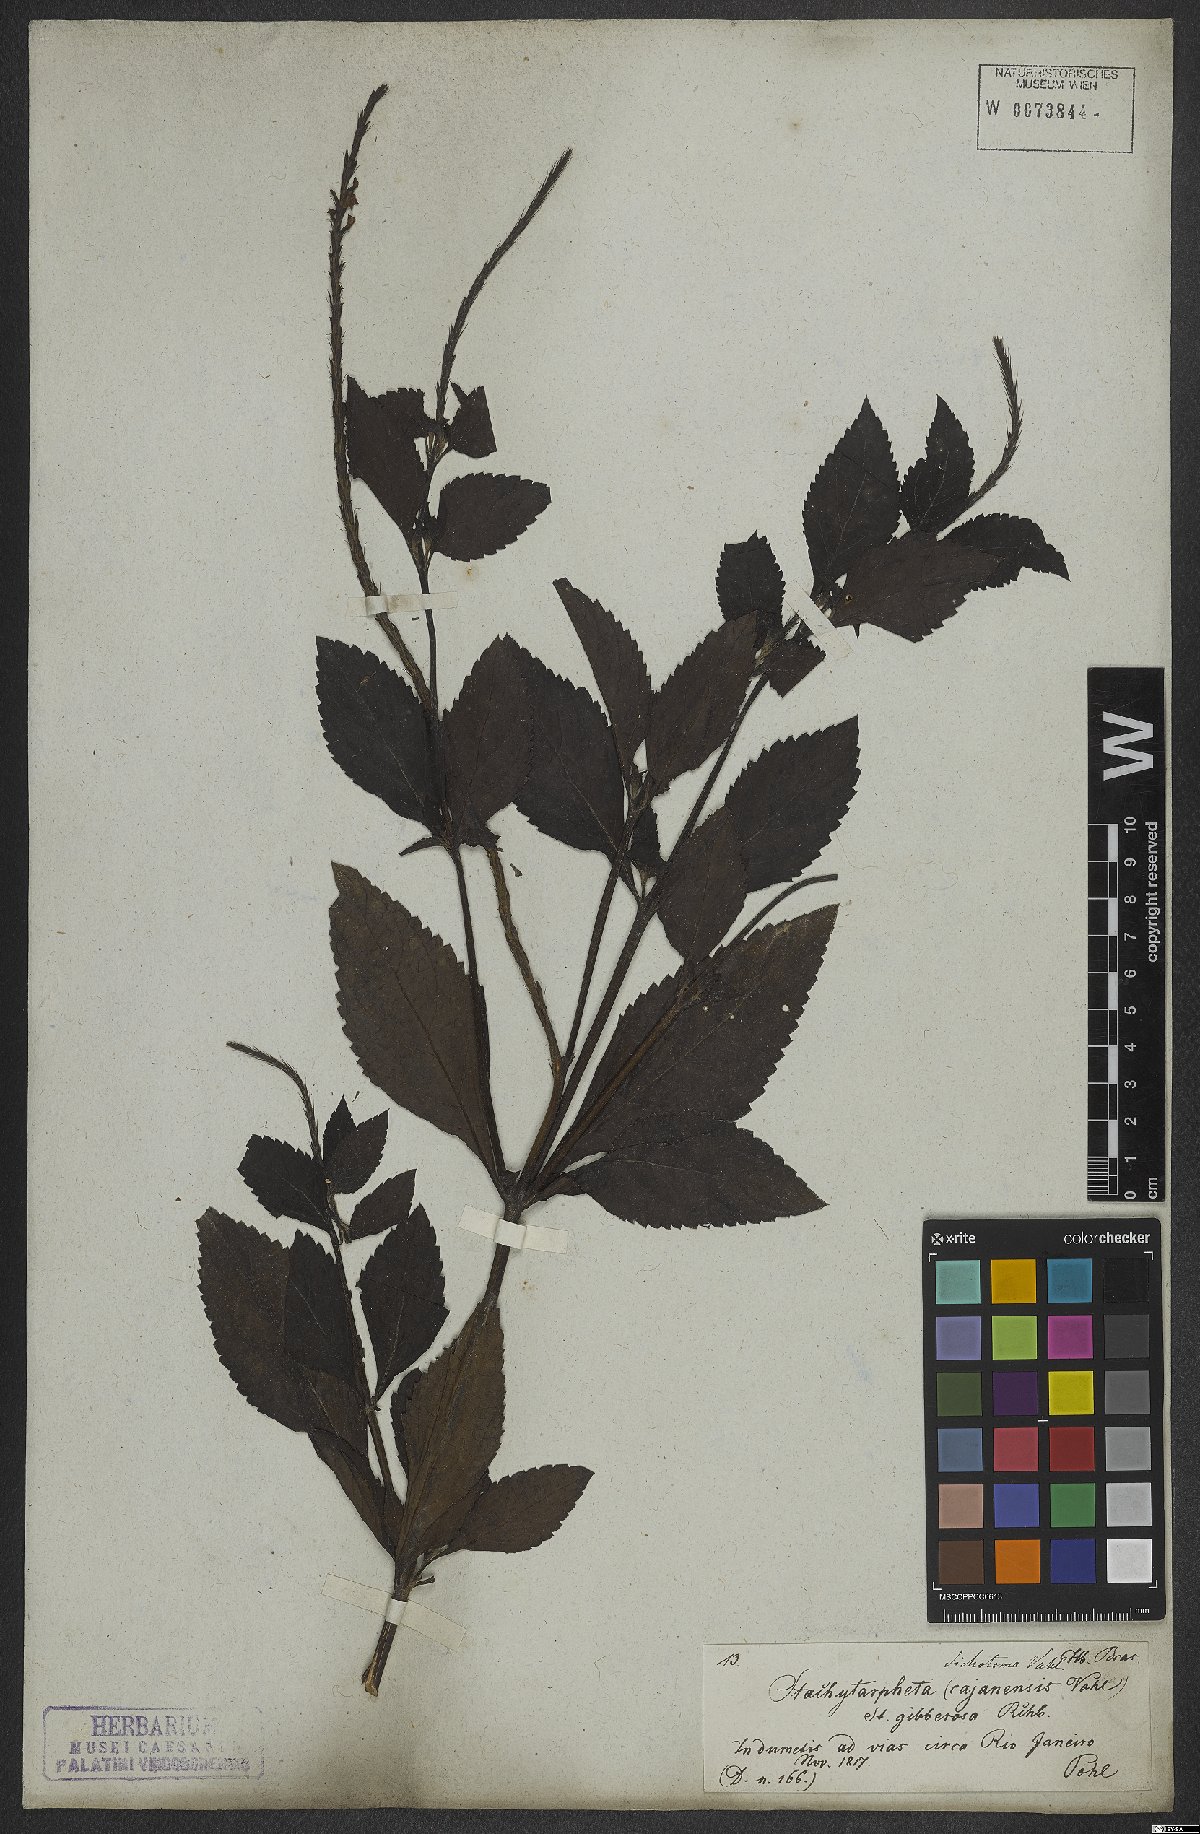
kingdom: Plantae
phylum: Tracheophyta
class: Magnoliopsida
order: Lamiales
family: Verbenaceae
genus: Stachytarpheta
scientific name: Stachytarpheta cayennensis
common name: Cayenne porterweed
